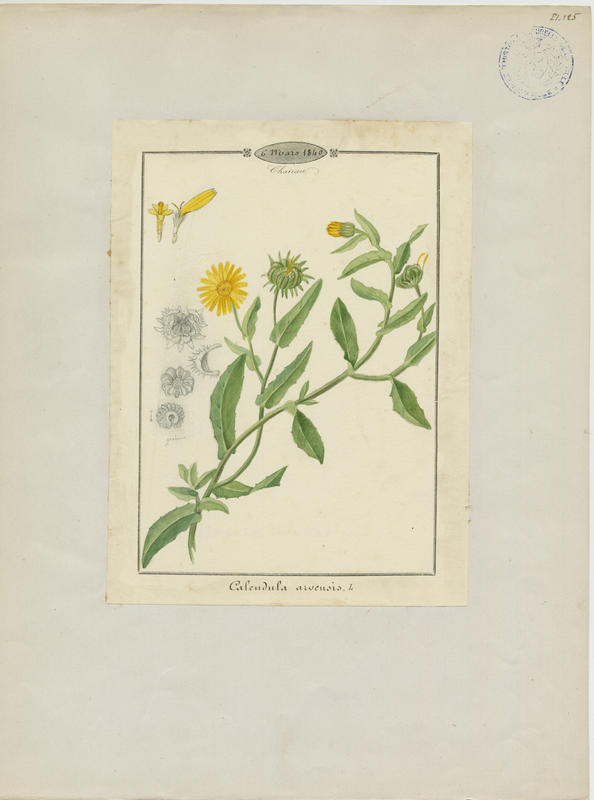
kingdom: Plantae
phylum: Tracheophyta
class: Magnoliopsida
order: Asterales
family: Asteraceae
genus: Calendula
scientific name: Calendula arvensis
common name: Field marigold
